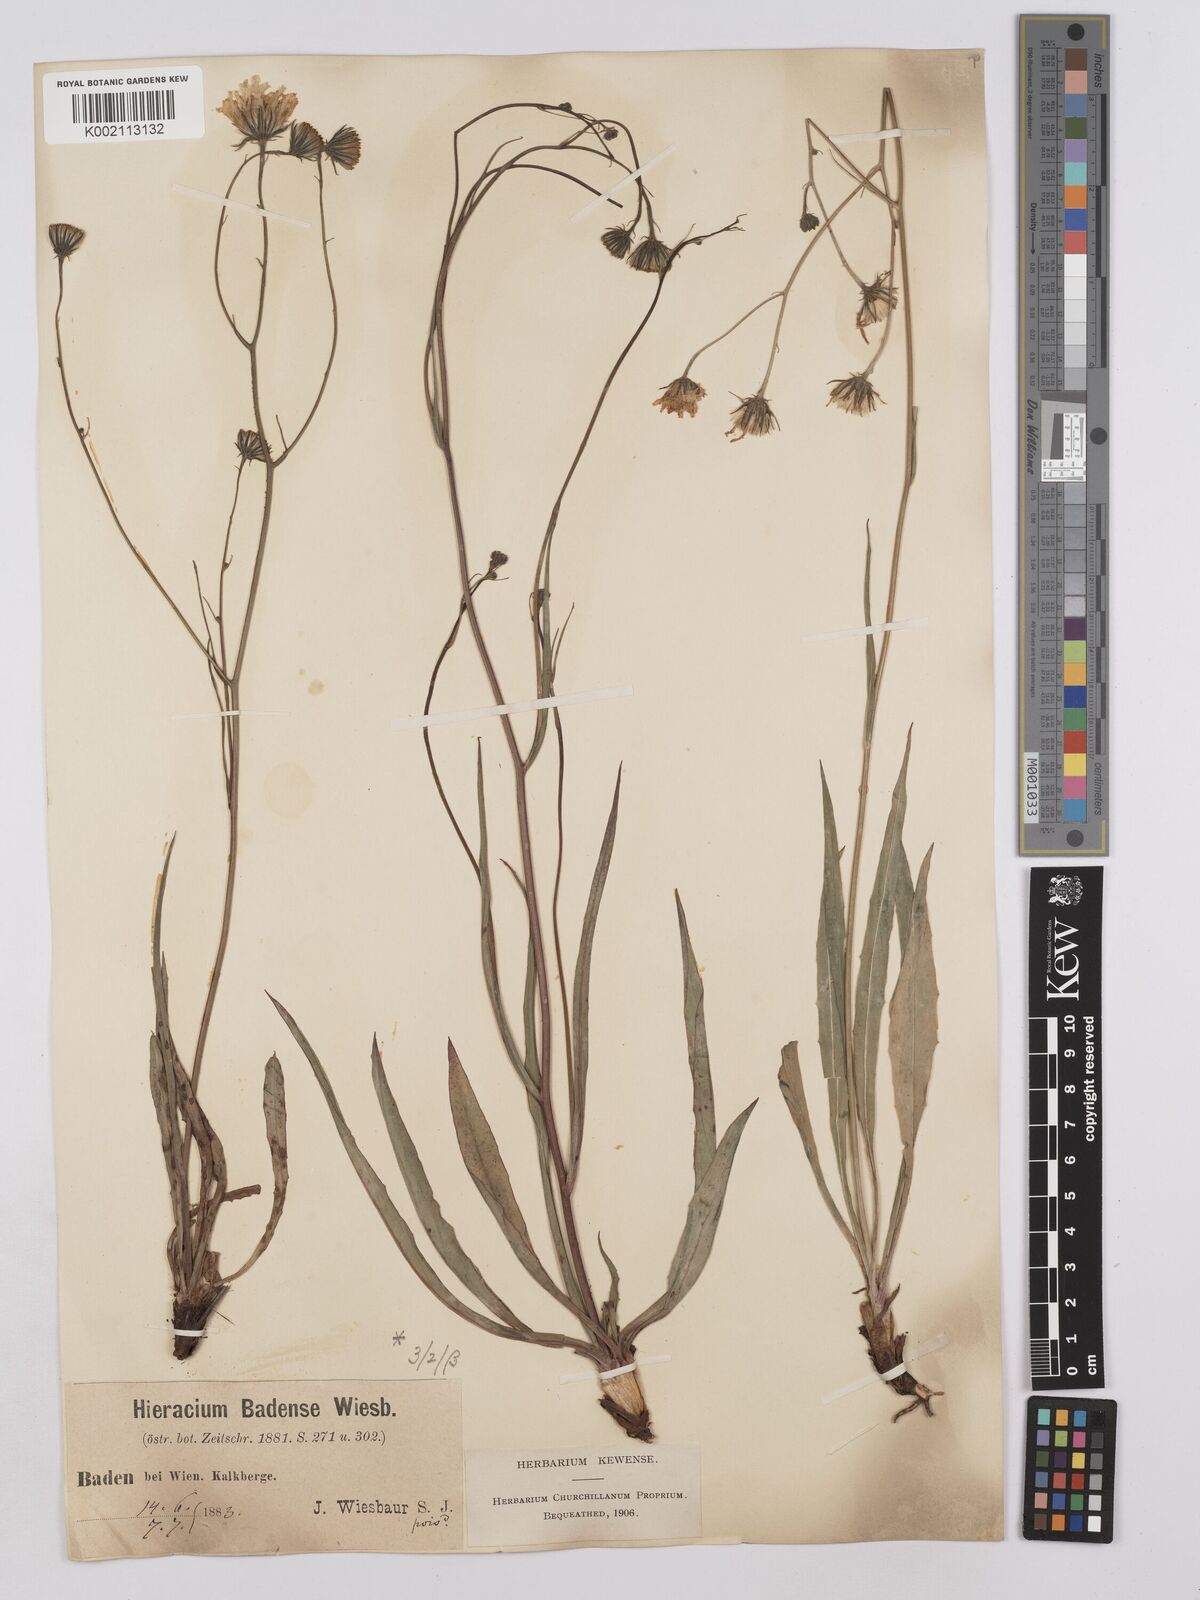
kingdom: Plantae
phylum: Tracheophyta
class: Magnoliopsida
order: Asterales
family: Asteraceae
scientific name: Asteraceae
